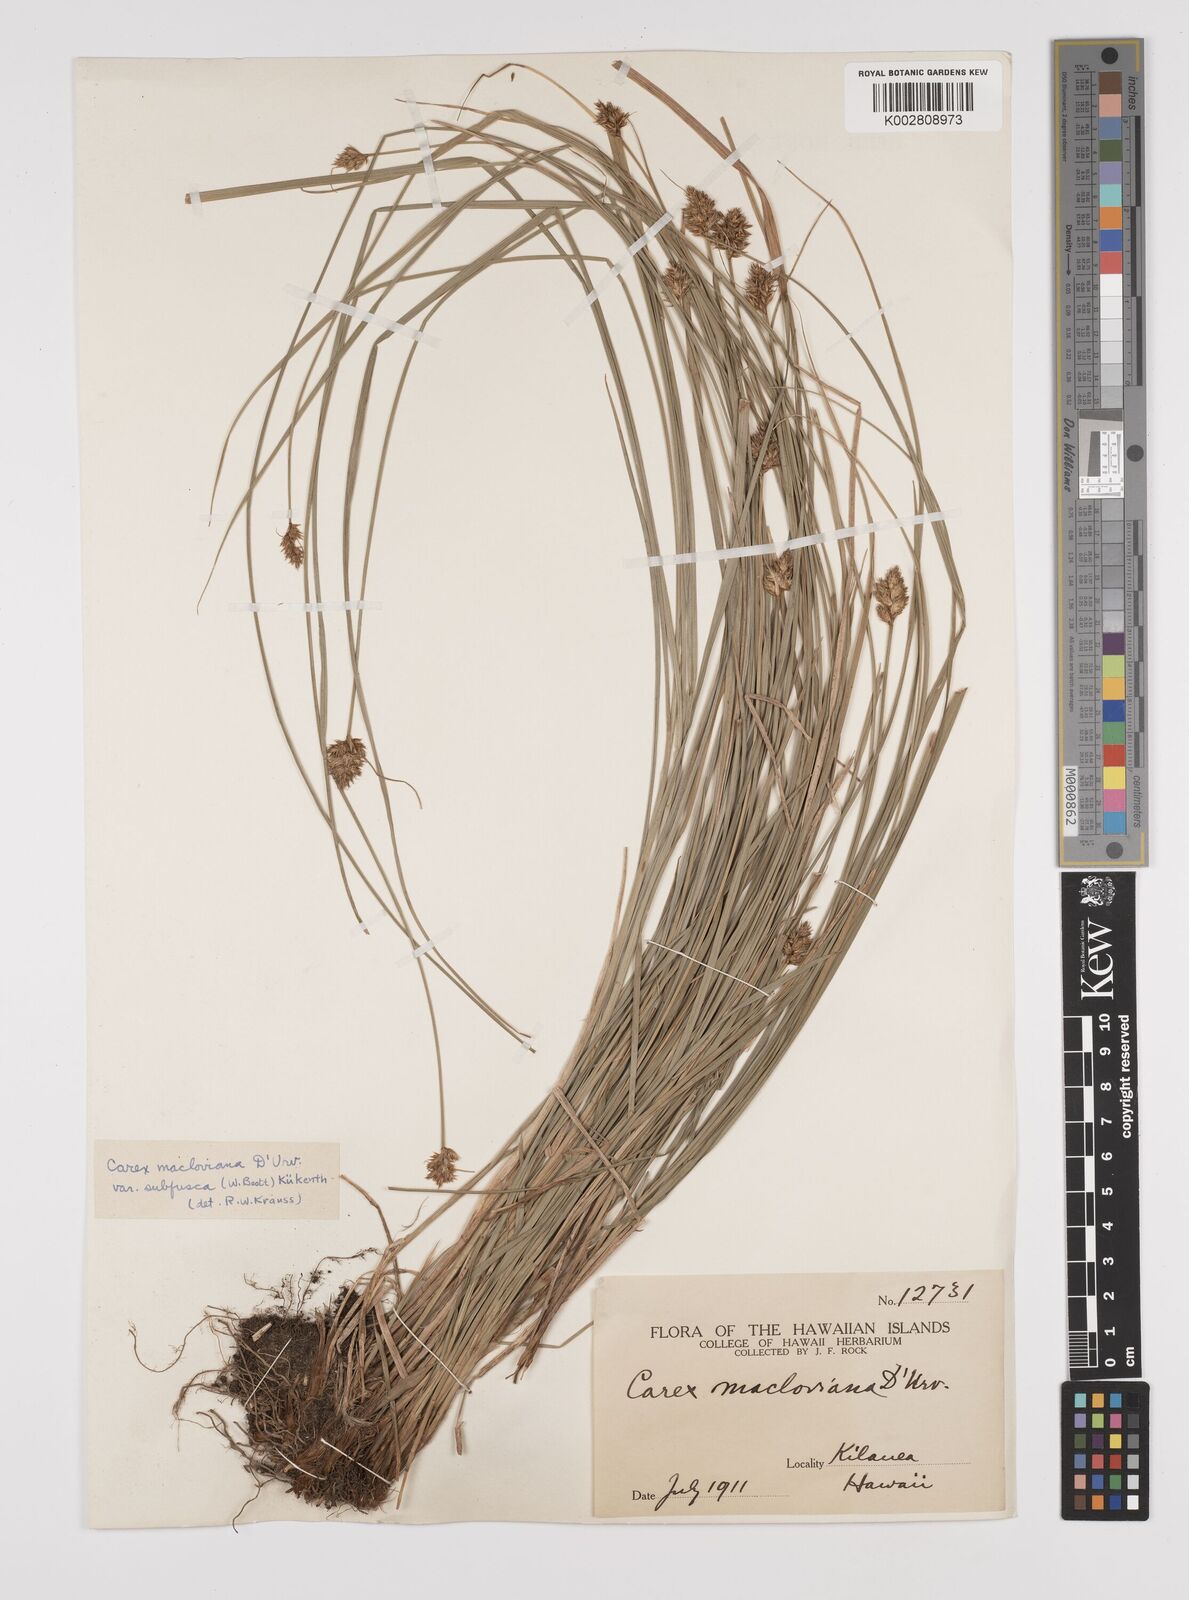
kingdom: Plantae
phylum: Tracheophyta
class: Liliopsida
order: Poales
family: Cyperaceae
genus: Carex
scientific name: Carex subfusca
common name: Brown sedge
